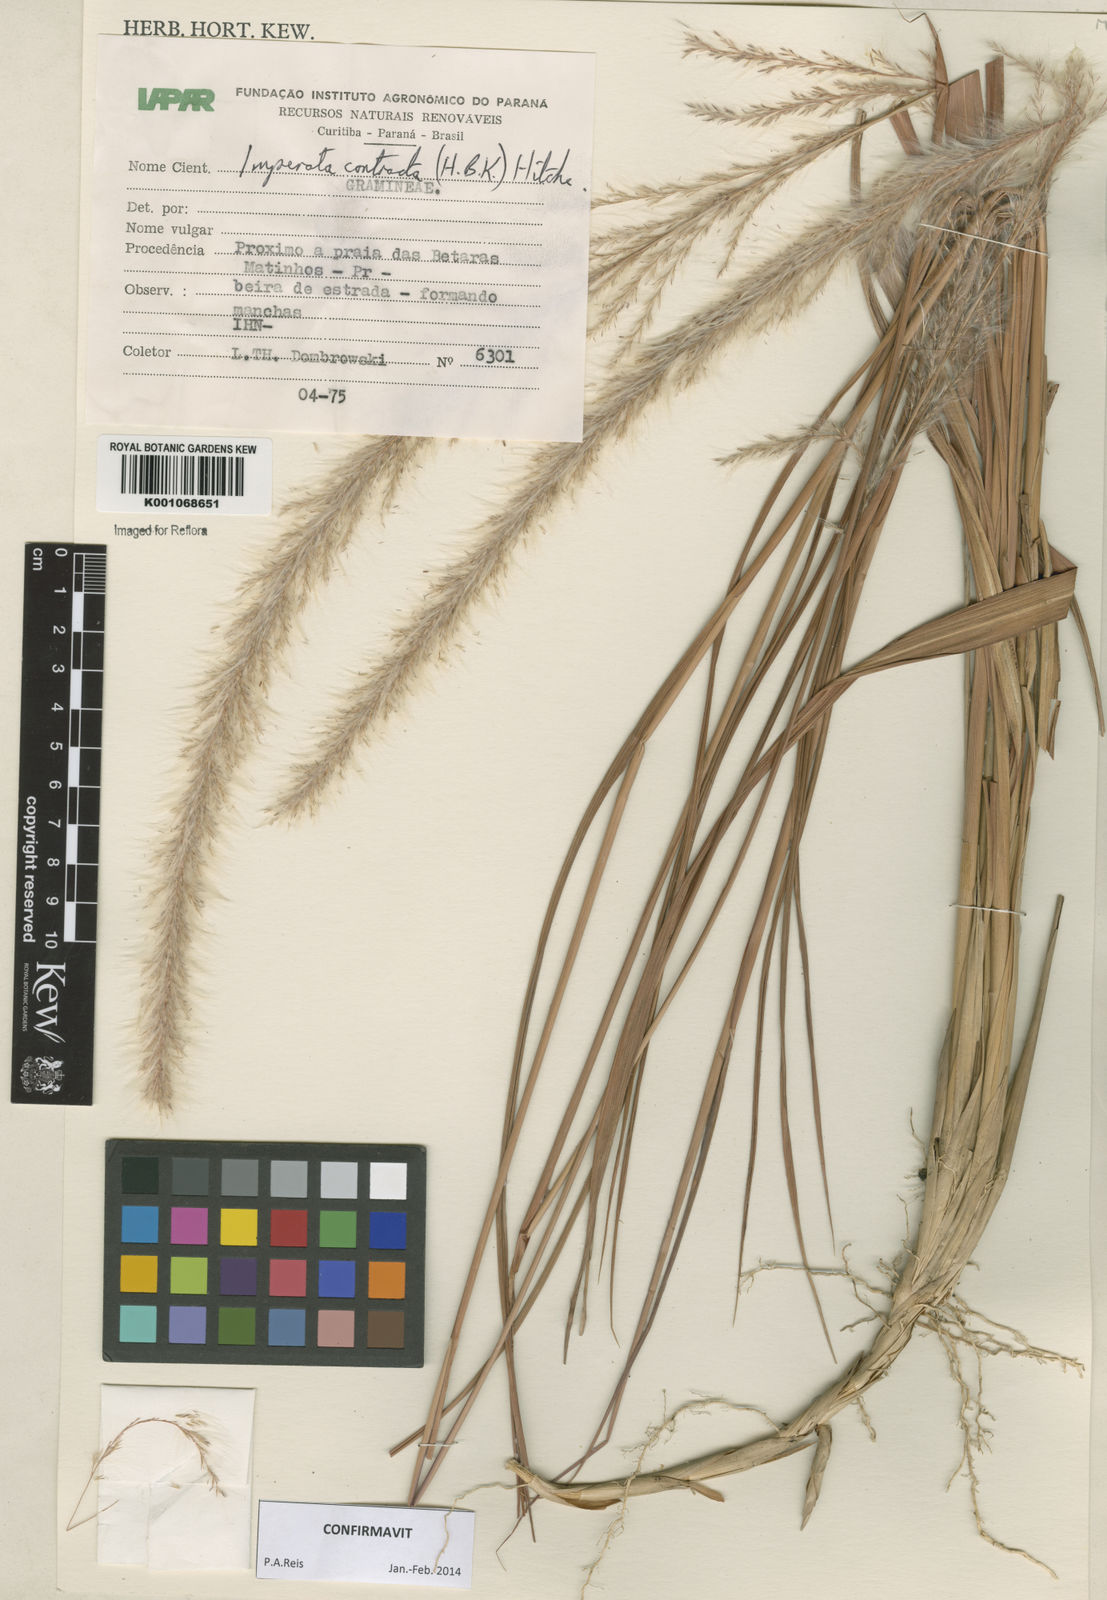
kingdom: Plantae
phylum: Tracheophyta
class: Liliopsida
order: Poales
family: Poaceae
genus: Imperata
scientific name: Imperata contracta
